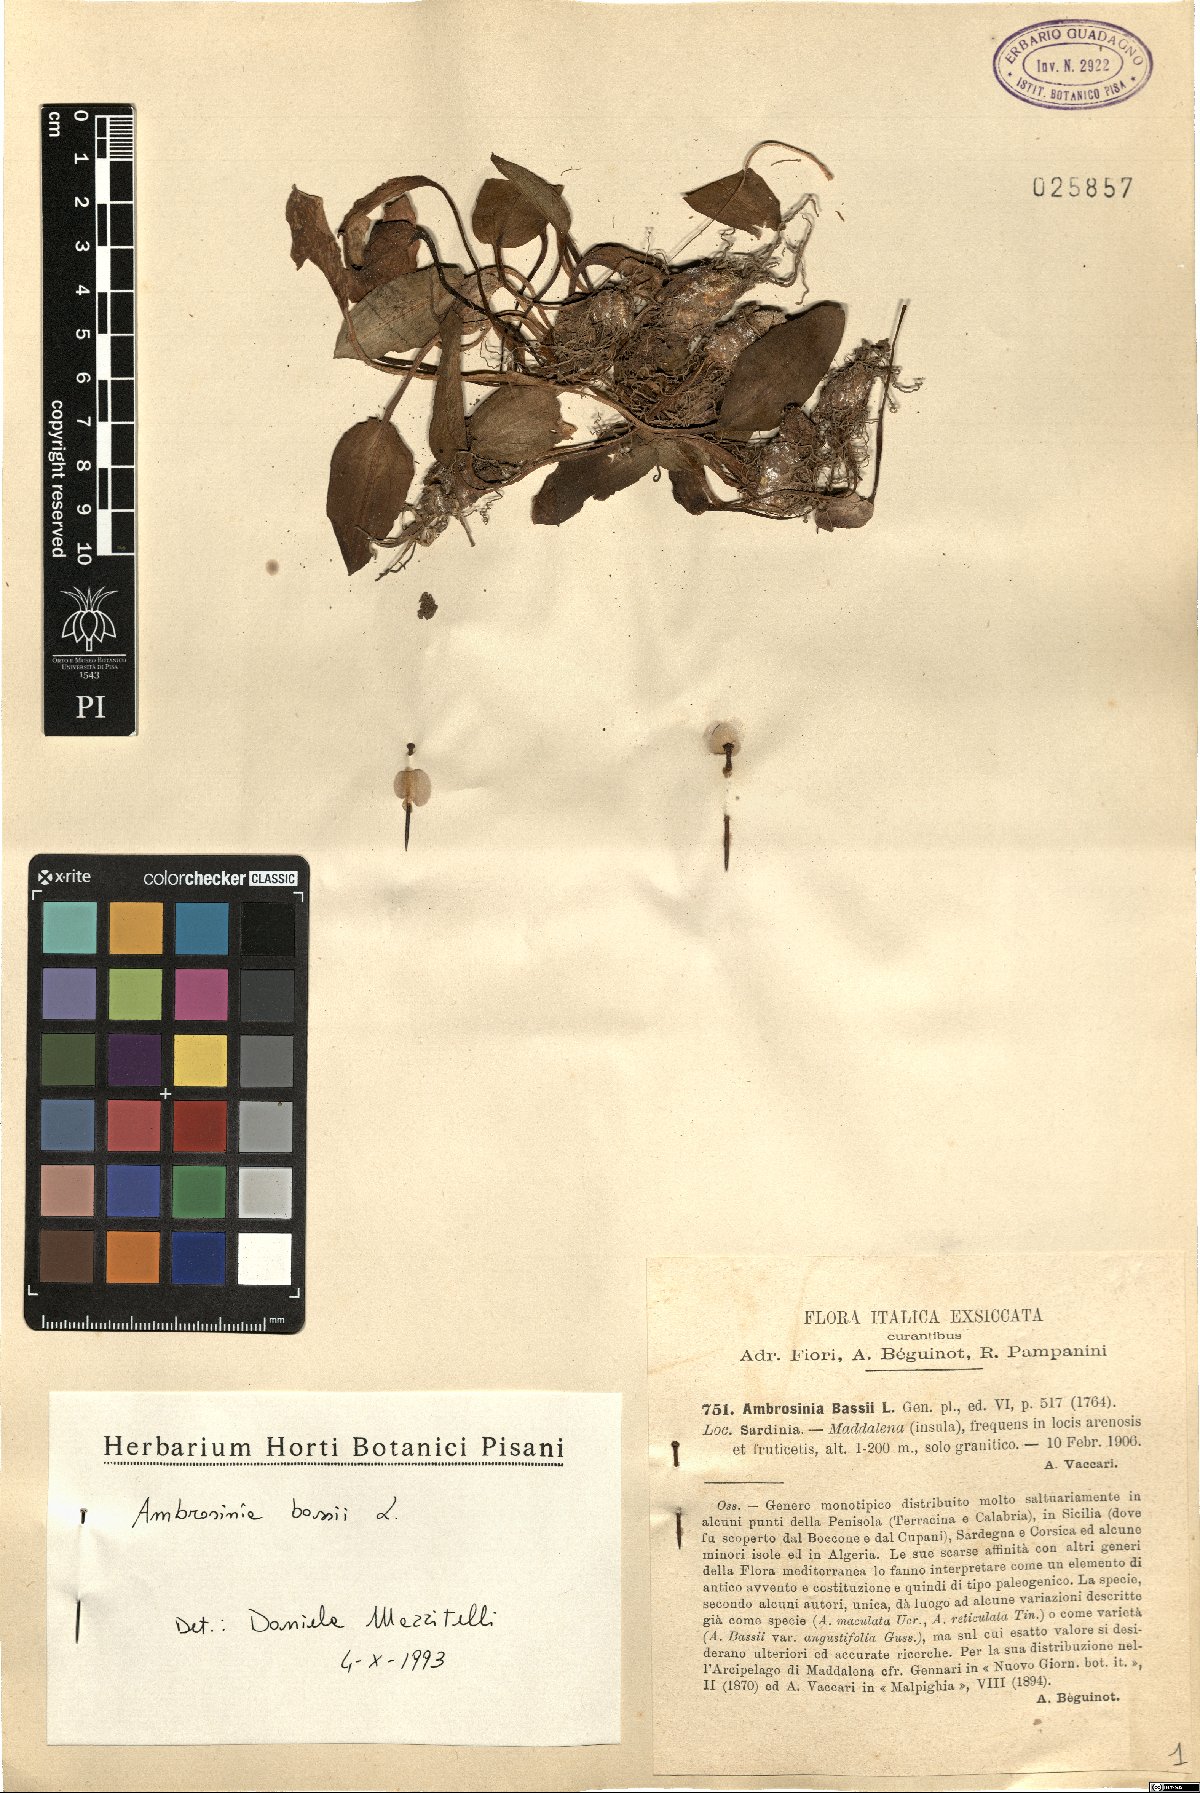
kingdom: Plantae
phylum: Tracheophyta
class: Liliopsida
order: Alismatales
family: Araceae
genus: Ambrosina
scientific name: Ambrosina bassii
